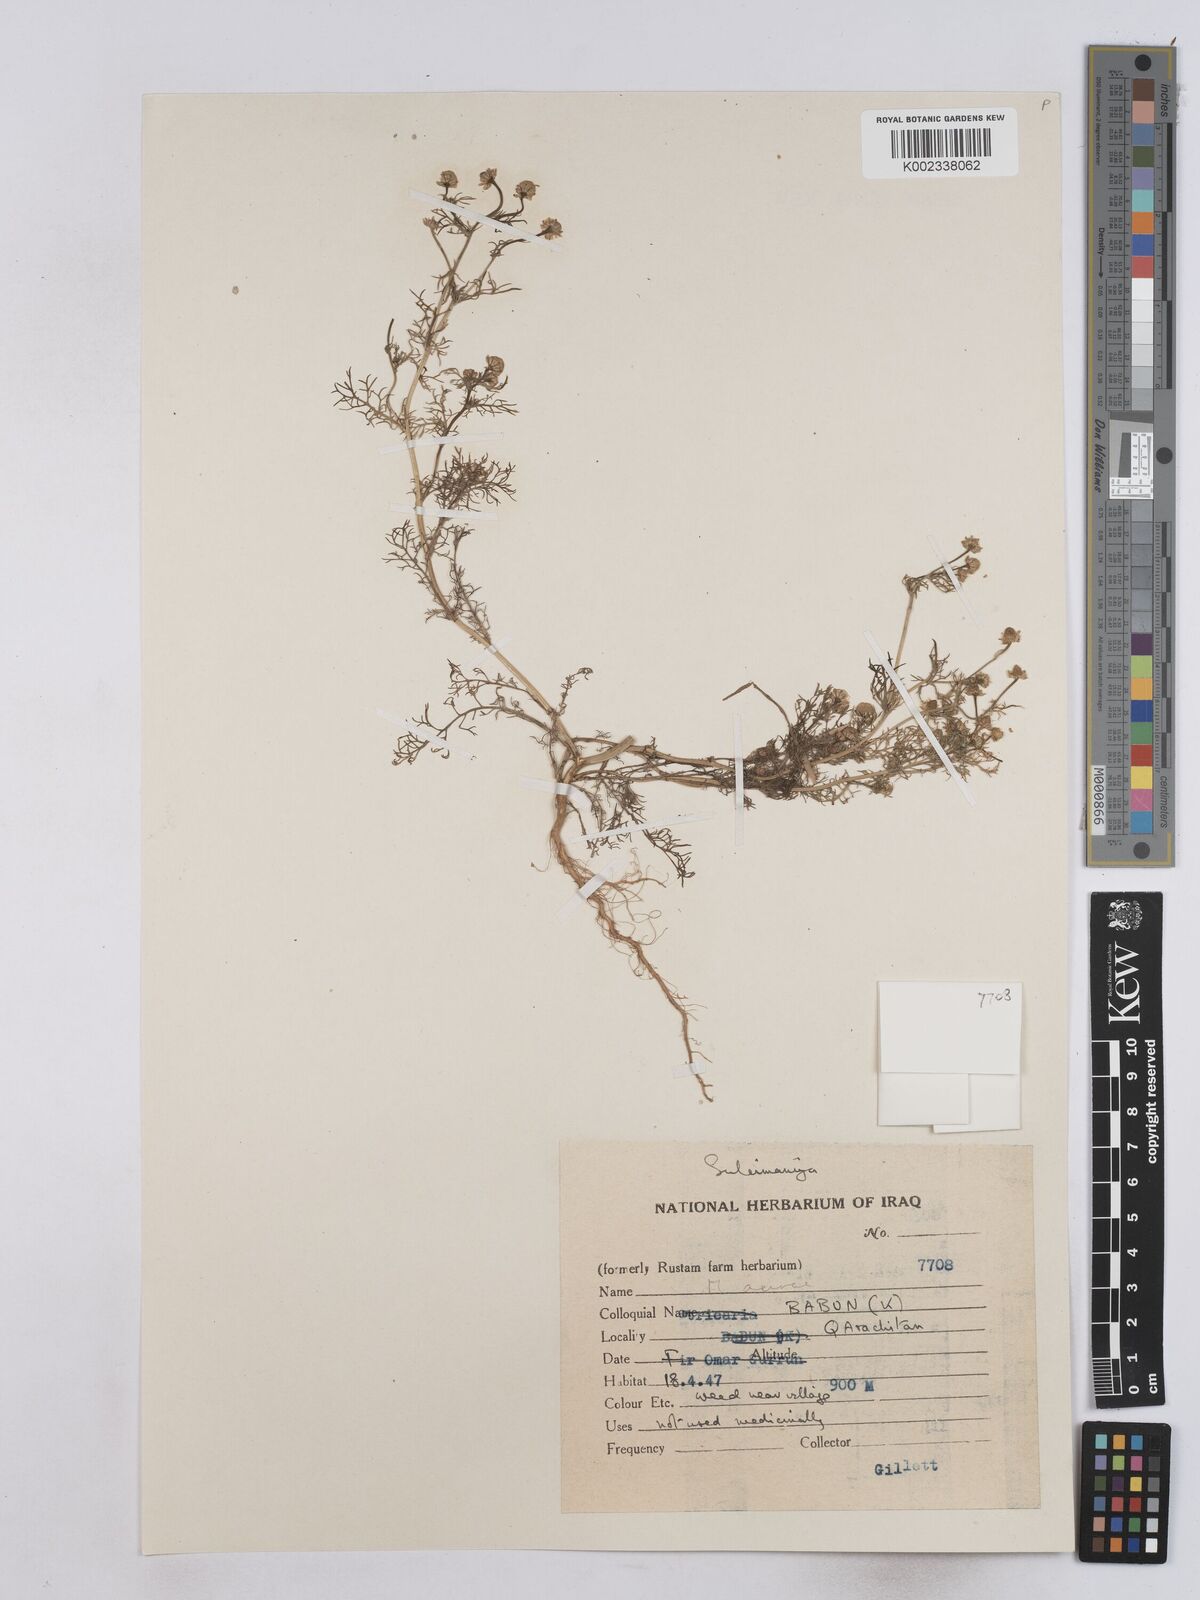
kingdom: Plantae
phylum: Tracheophyta
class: Magnoliopsida
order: Asterales
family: Asteraceae
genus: Matricaria
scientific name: Matricaria aurea
